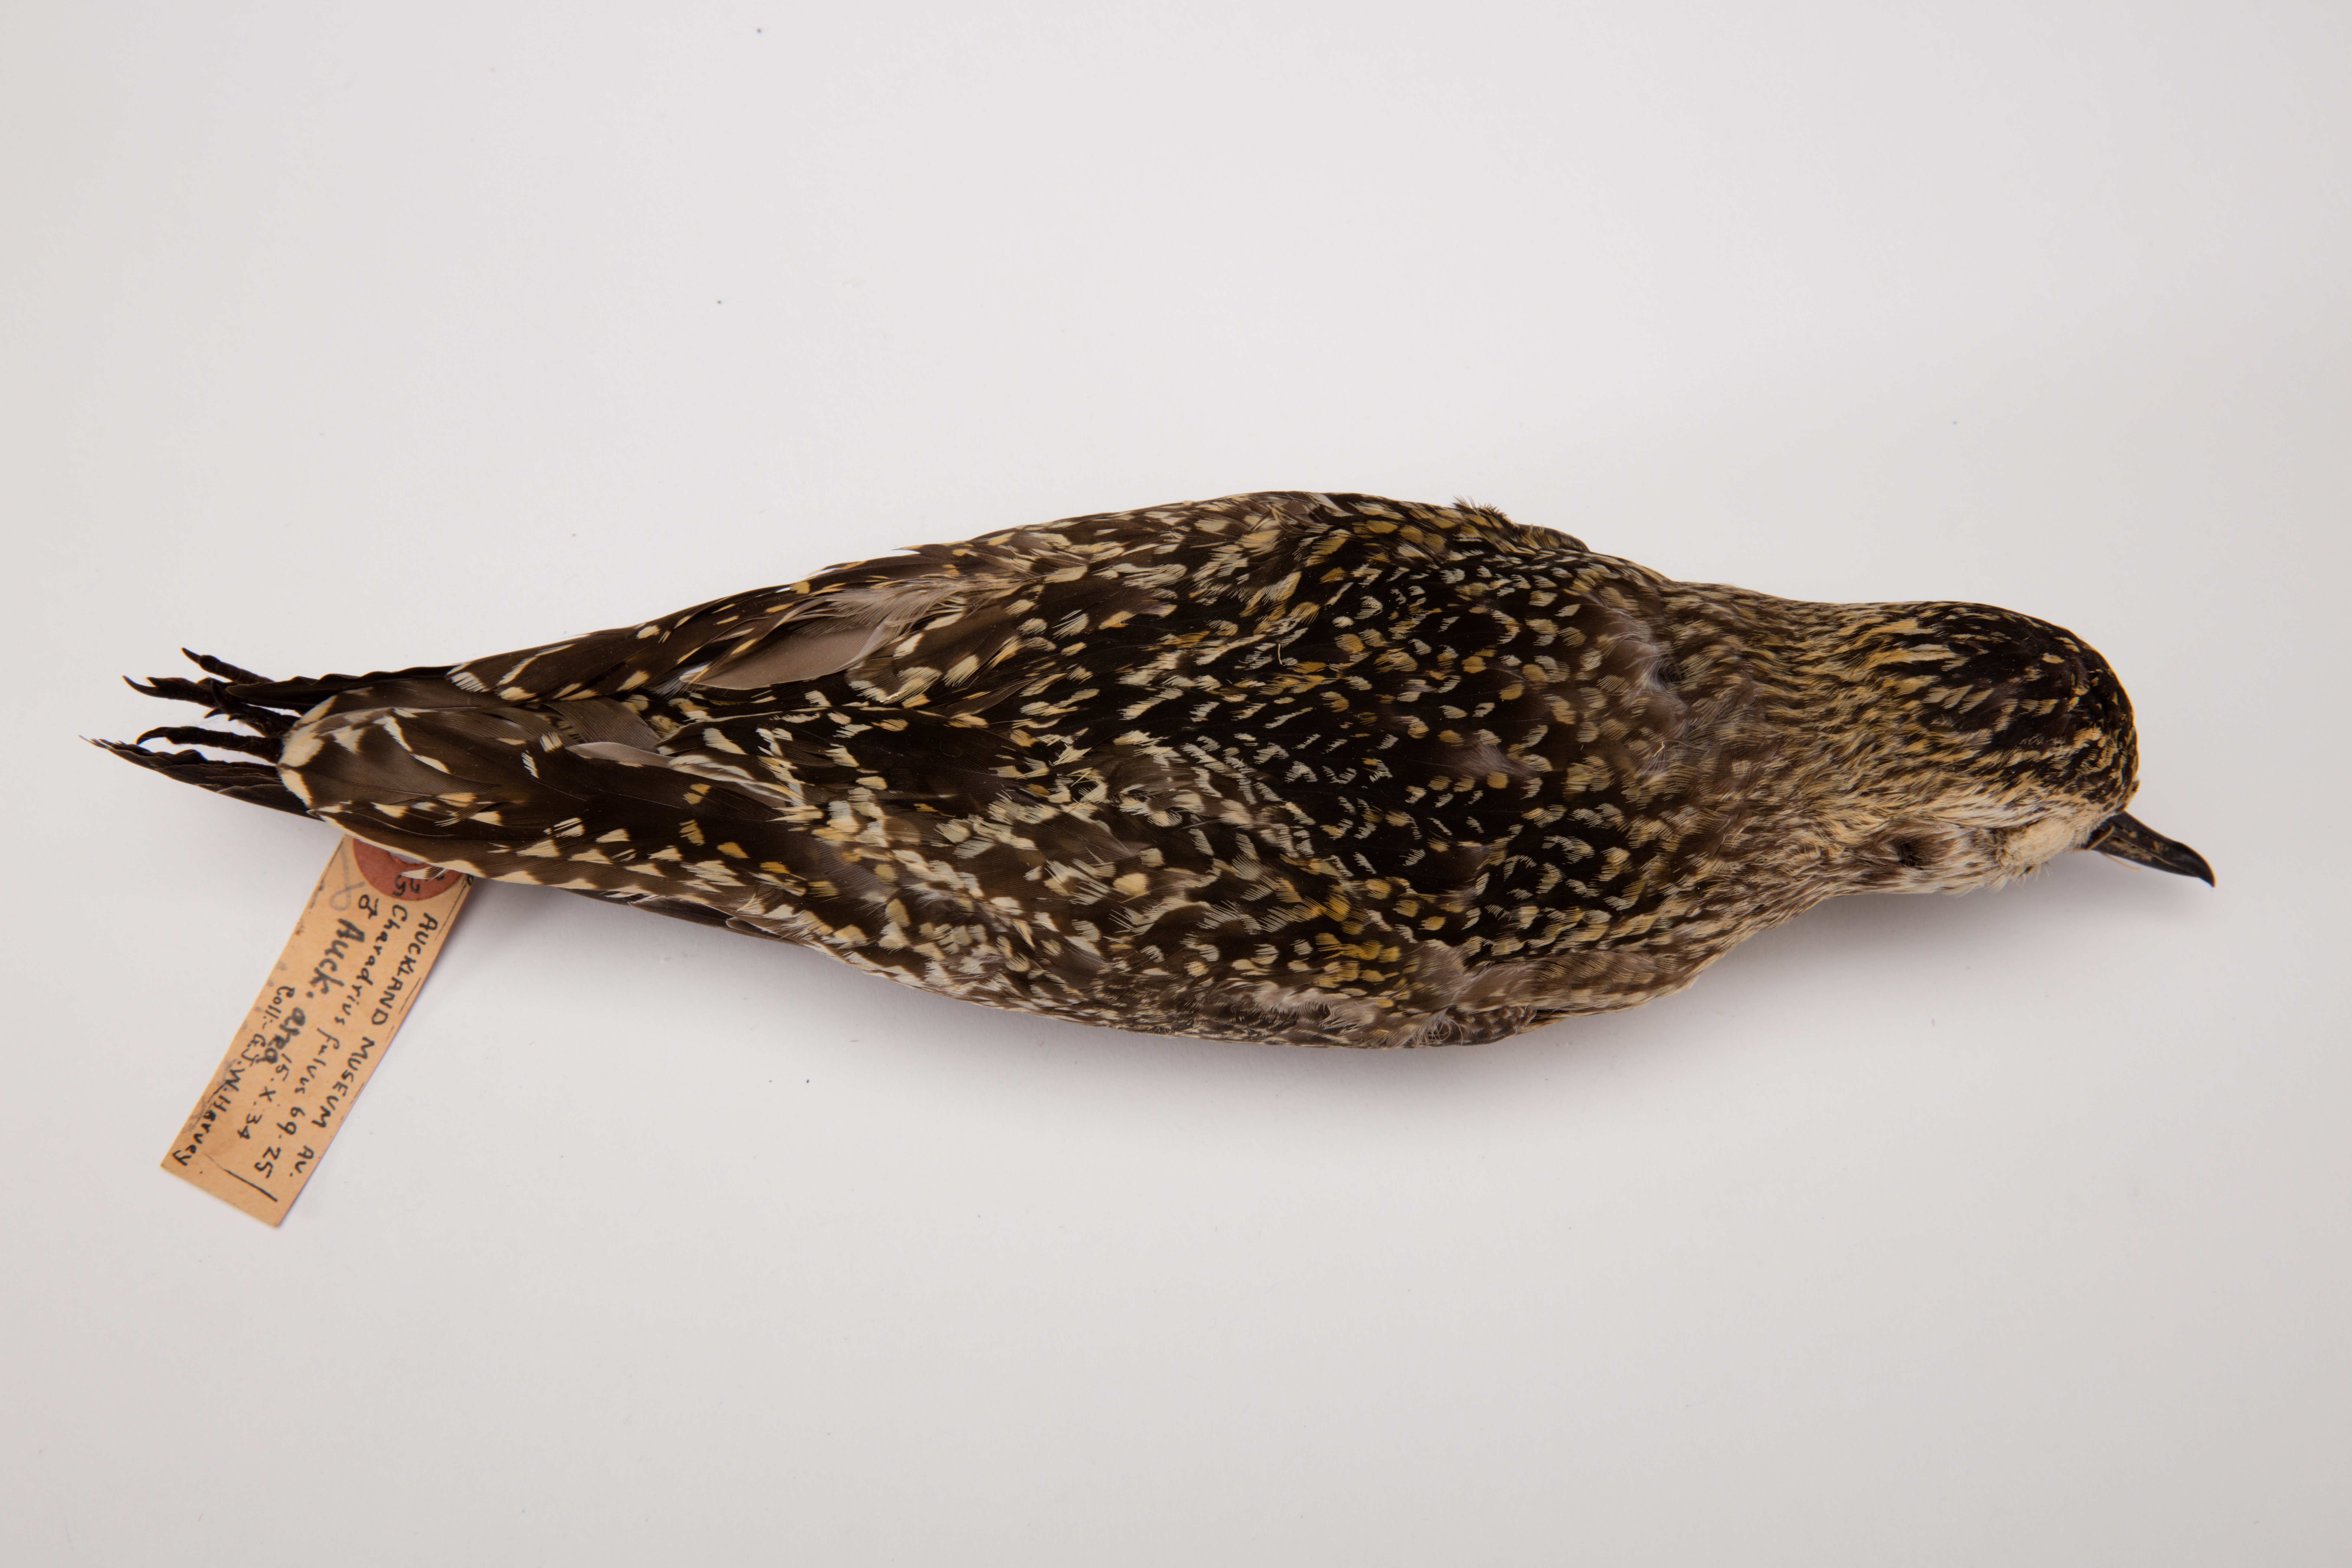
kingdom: Animalia
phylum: Chordata
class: Aves
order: Charadriiformes
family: Charadriidae
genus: Pluvialis
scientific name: Pluvialis fulva
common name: Pacific golden plover
